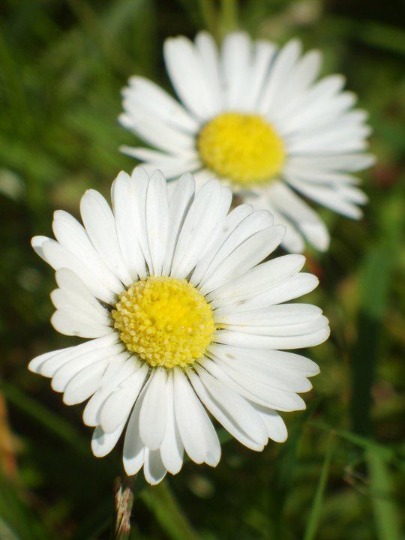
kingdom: Plantae
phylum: Tracheophyta
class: Magnoliopsida
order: Asterales
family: Asteraceae
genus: Bellis
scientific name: Bellis perennis
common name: Tusindfryd
